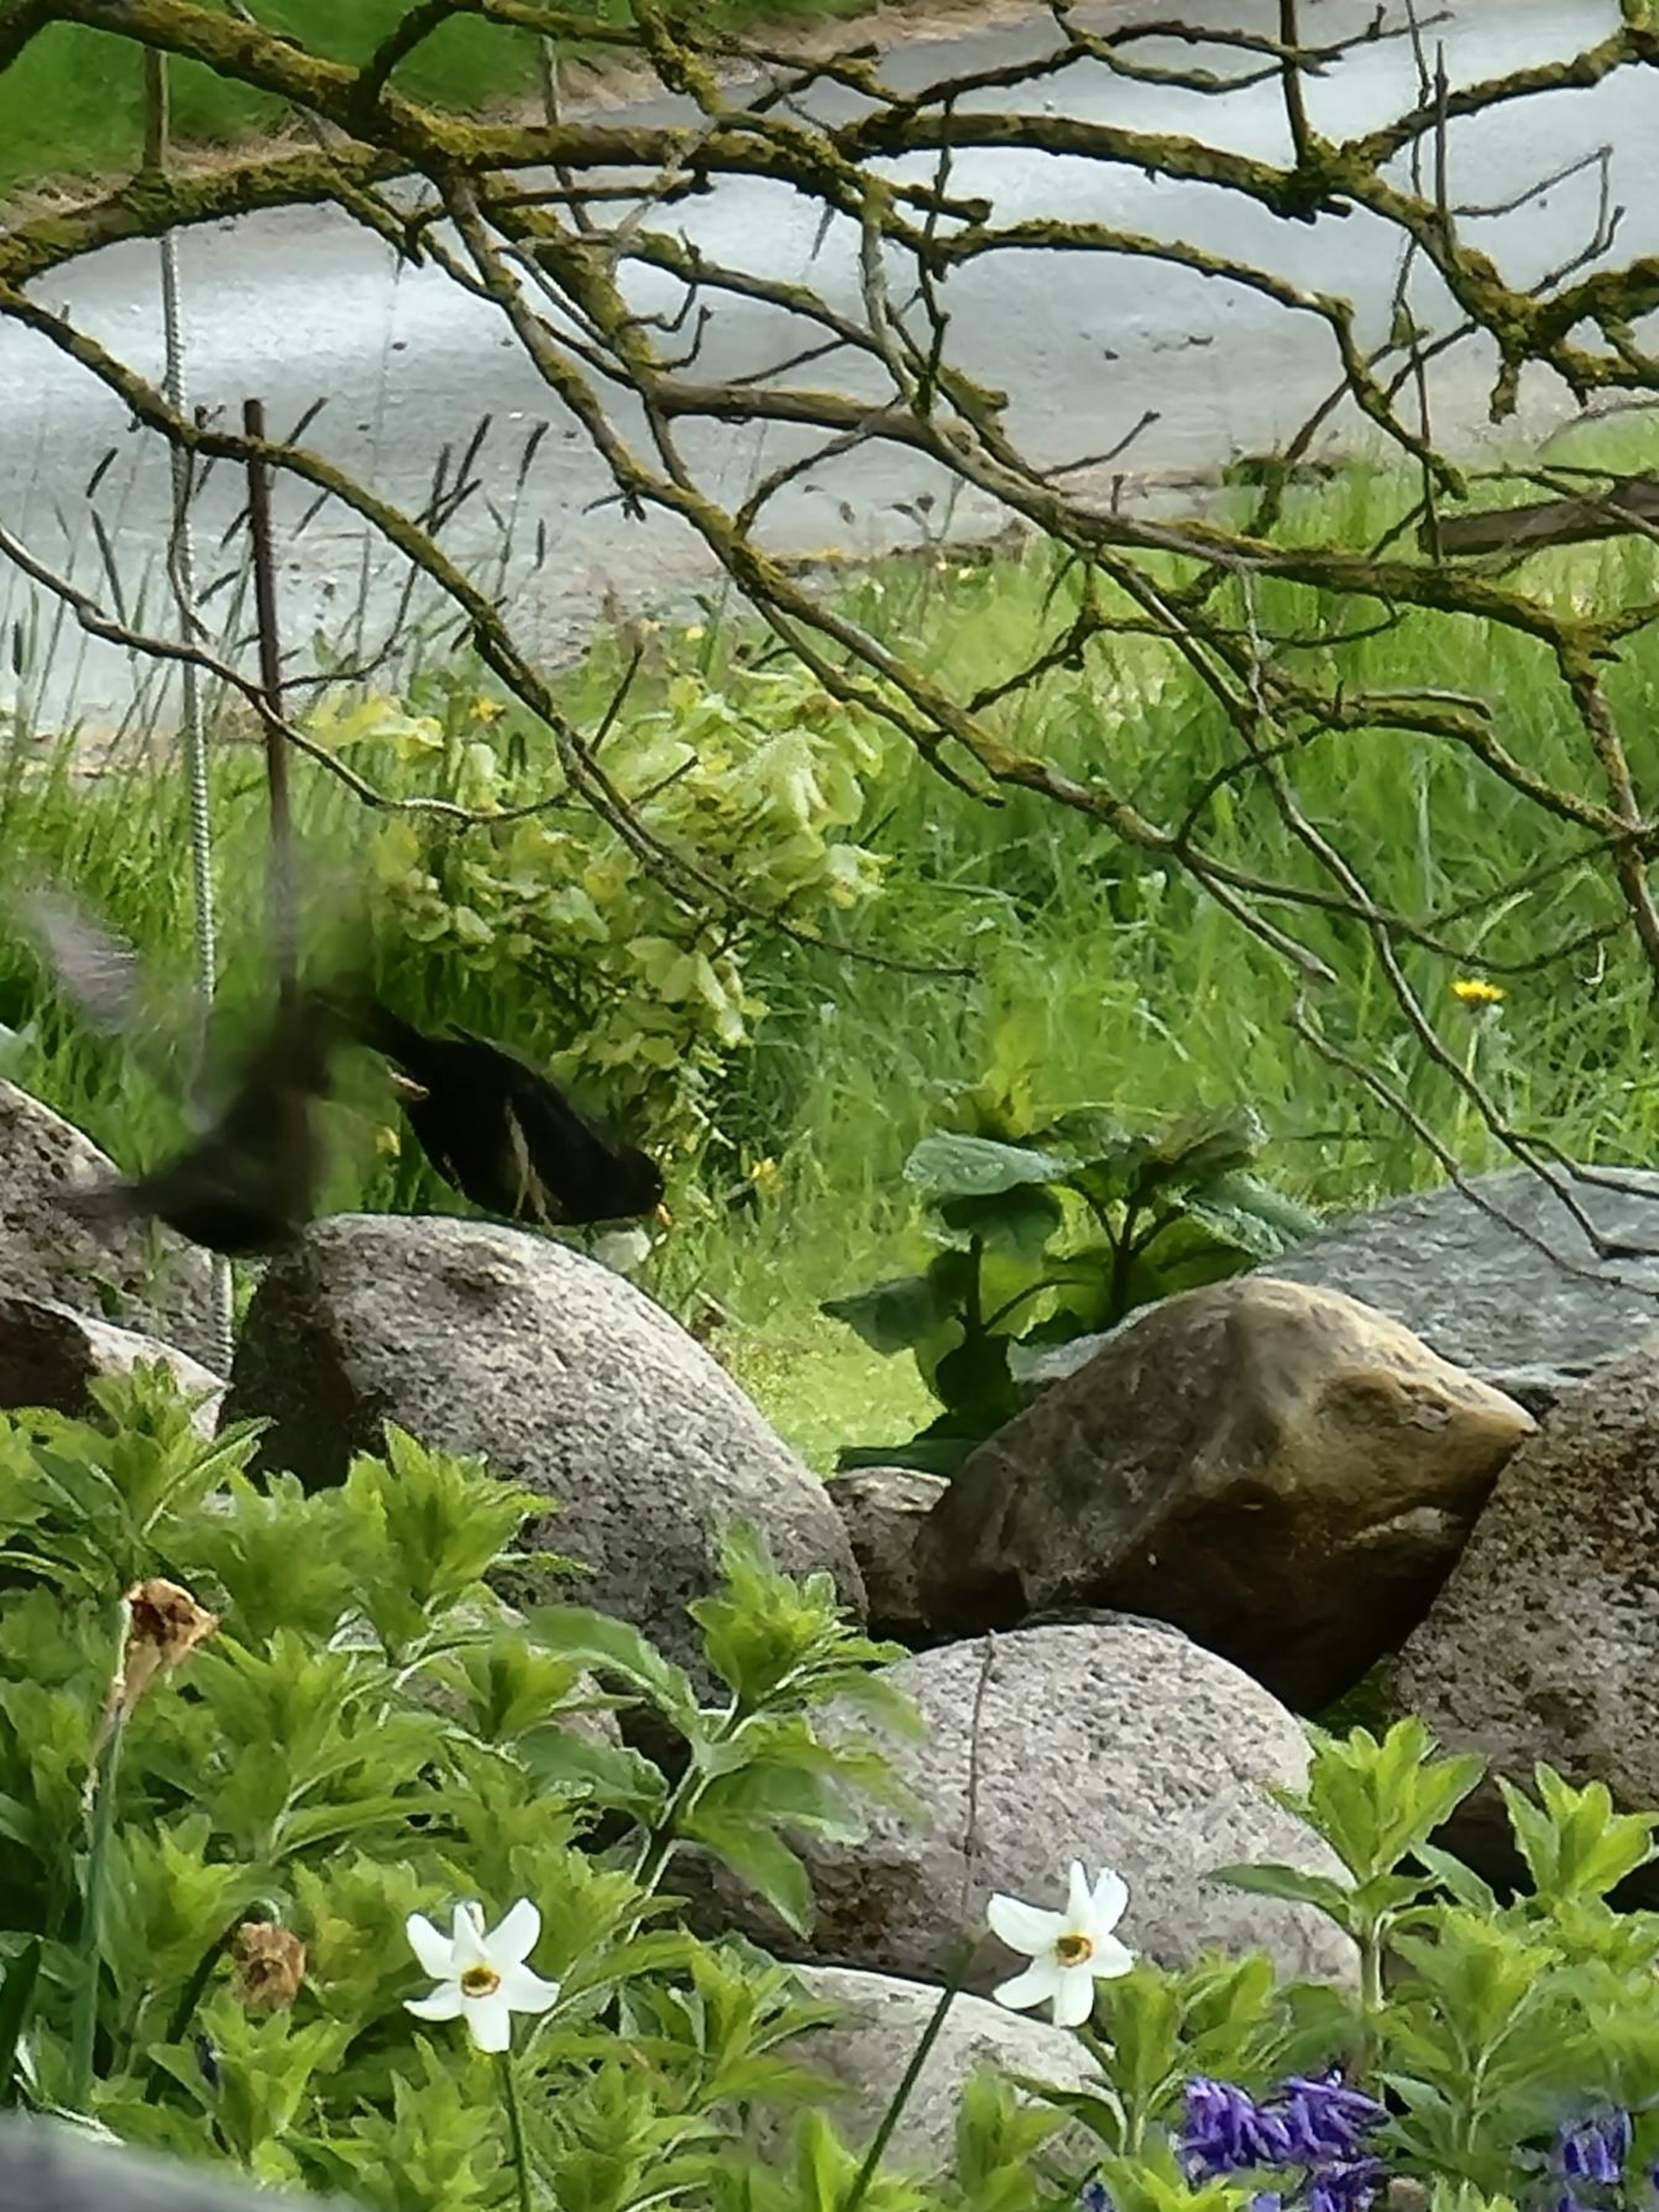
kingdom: Animalia
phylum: Chordata
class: Aves
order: Passeriformes
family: Turdidae
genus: Turdus
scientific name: Turdus merula
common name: Solsort
